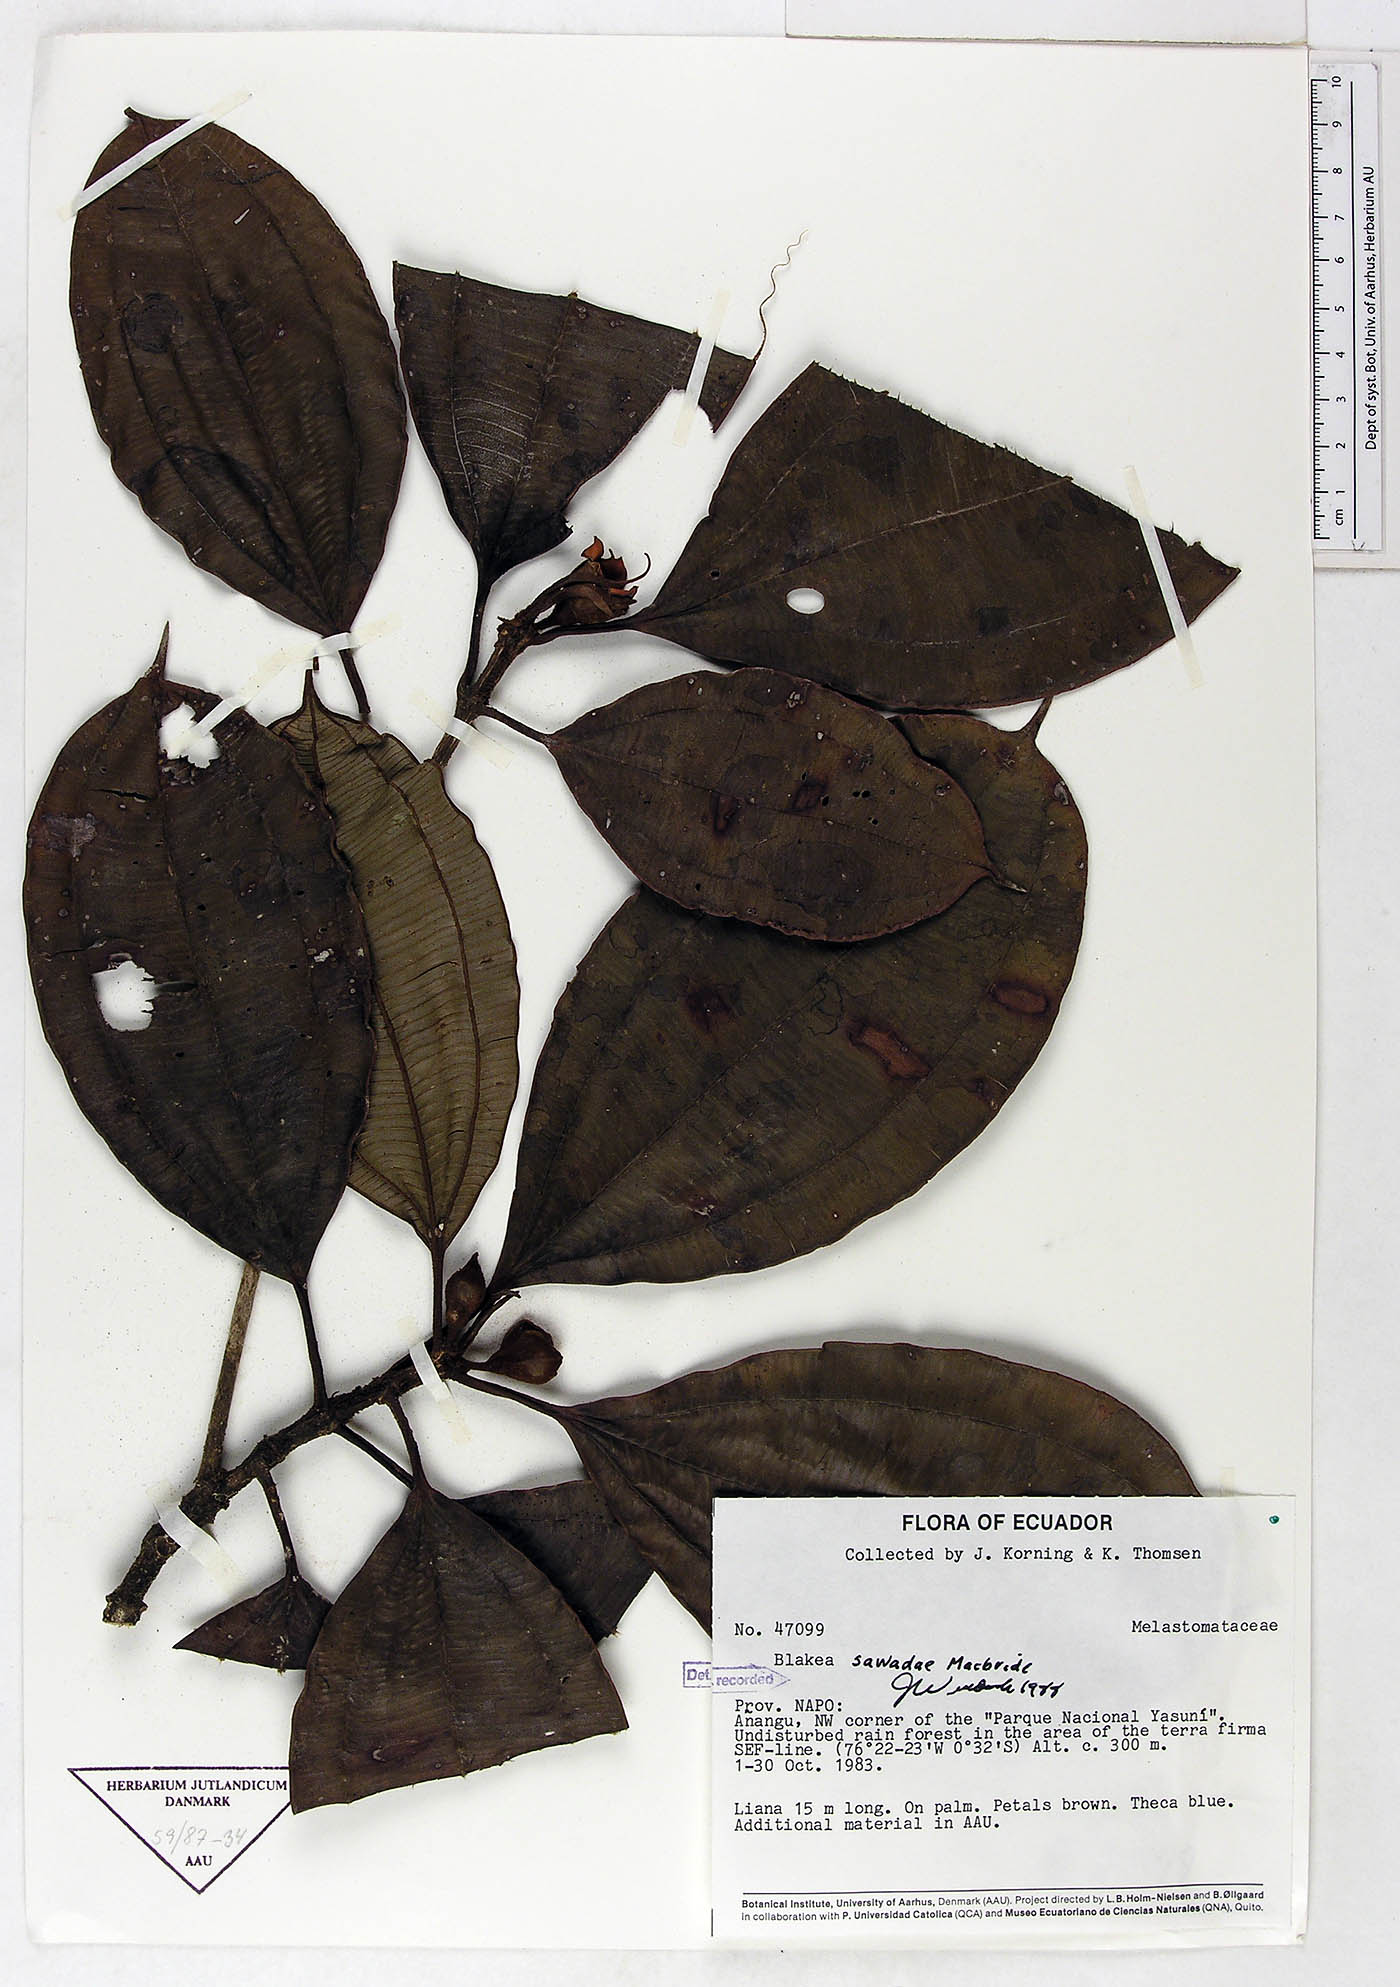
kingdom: Plantae
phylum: Tracheophyta
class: Magnoliopsida
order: Myrtales
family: Melastomataceae
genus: Blakea
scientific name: Blakea sawadae
